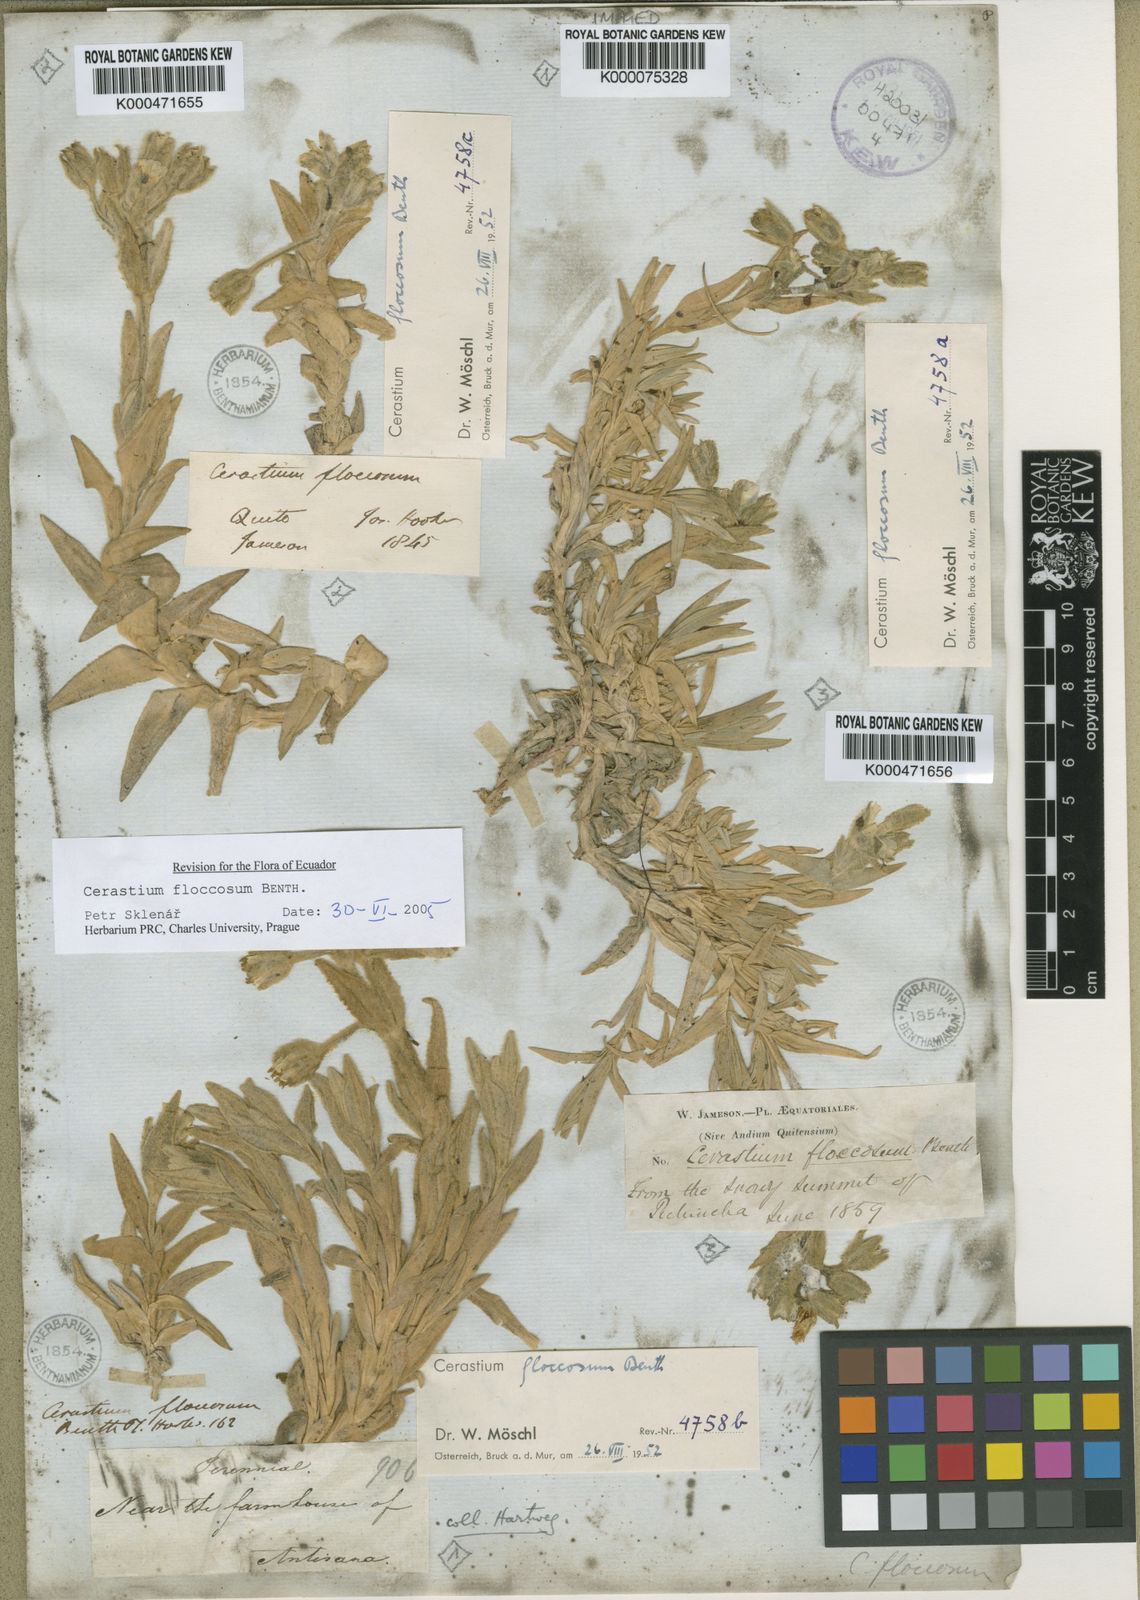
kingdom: Plantae
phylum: Tracheophyta
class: Magnoliopsida
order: Caryophyllales
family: Caryophyllaceae
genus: Cerastium
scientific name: Cerastium floccosum
